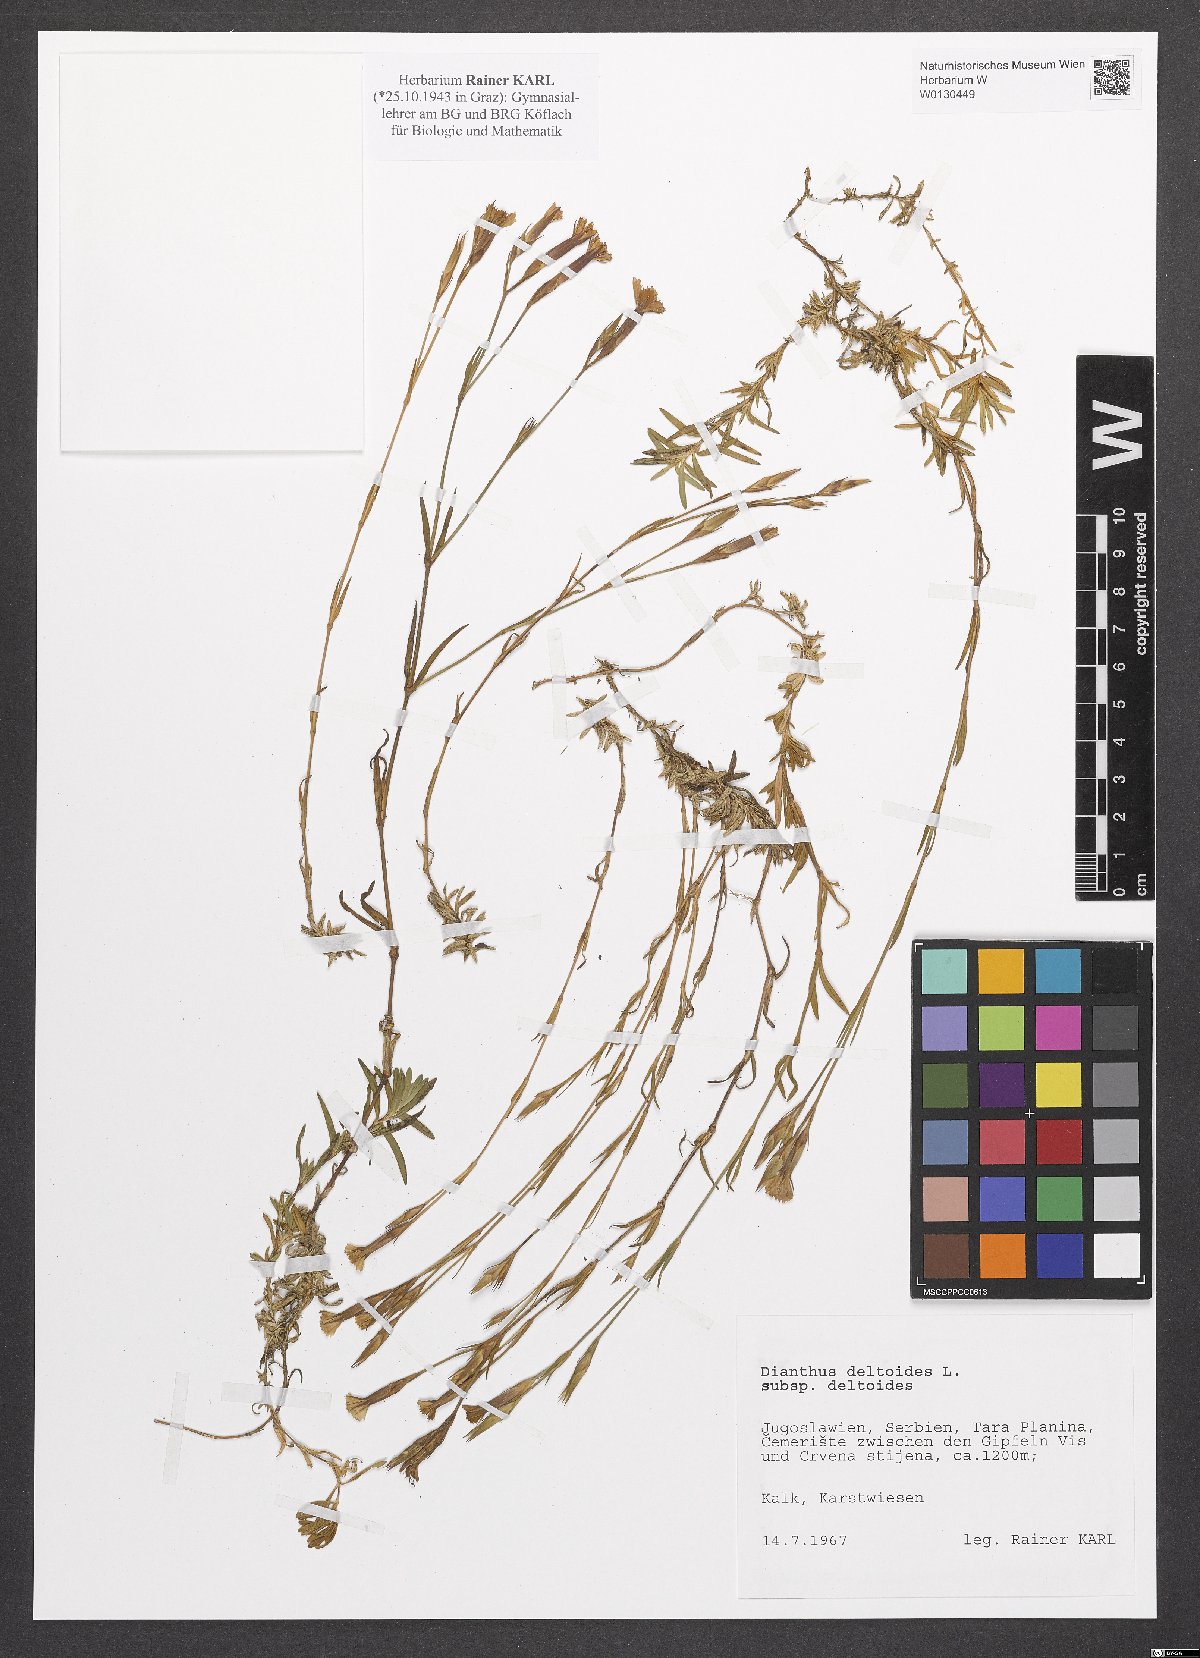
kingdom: Plantae
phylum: Tracheophyta
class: Magnoliopsida
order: Caryophyllales
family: Caryophyllaceae
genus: Dianthus
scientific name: Dianthus deltoides
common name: Maiden pink
